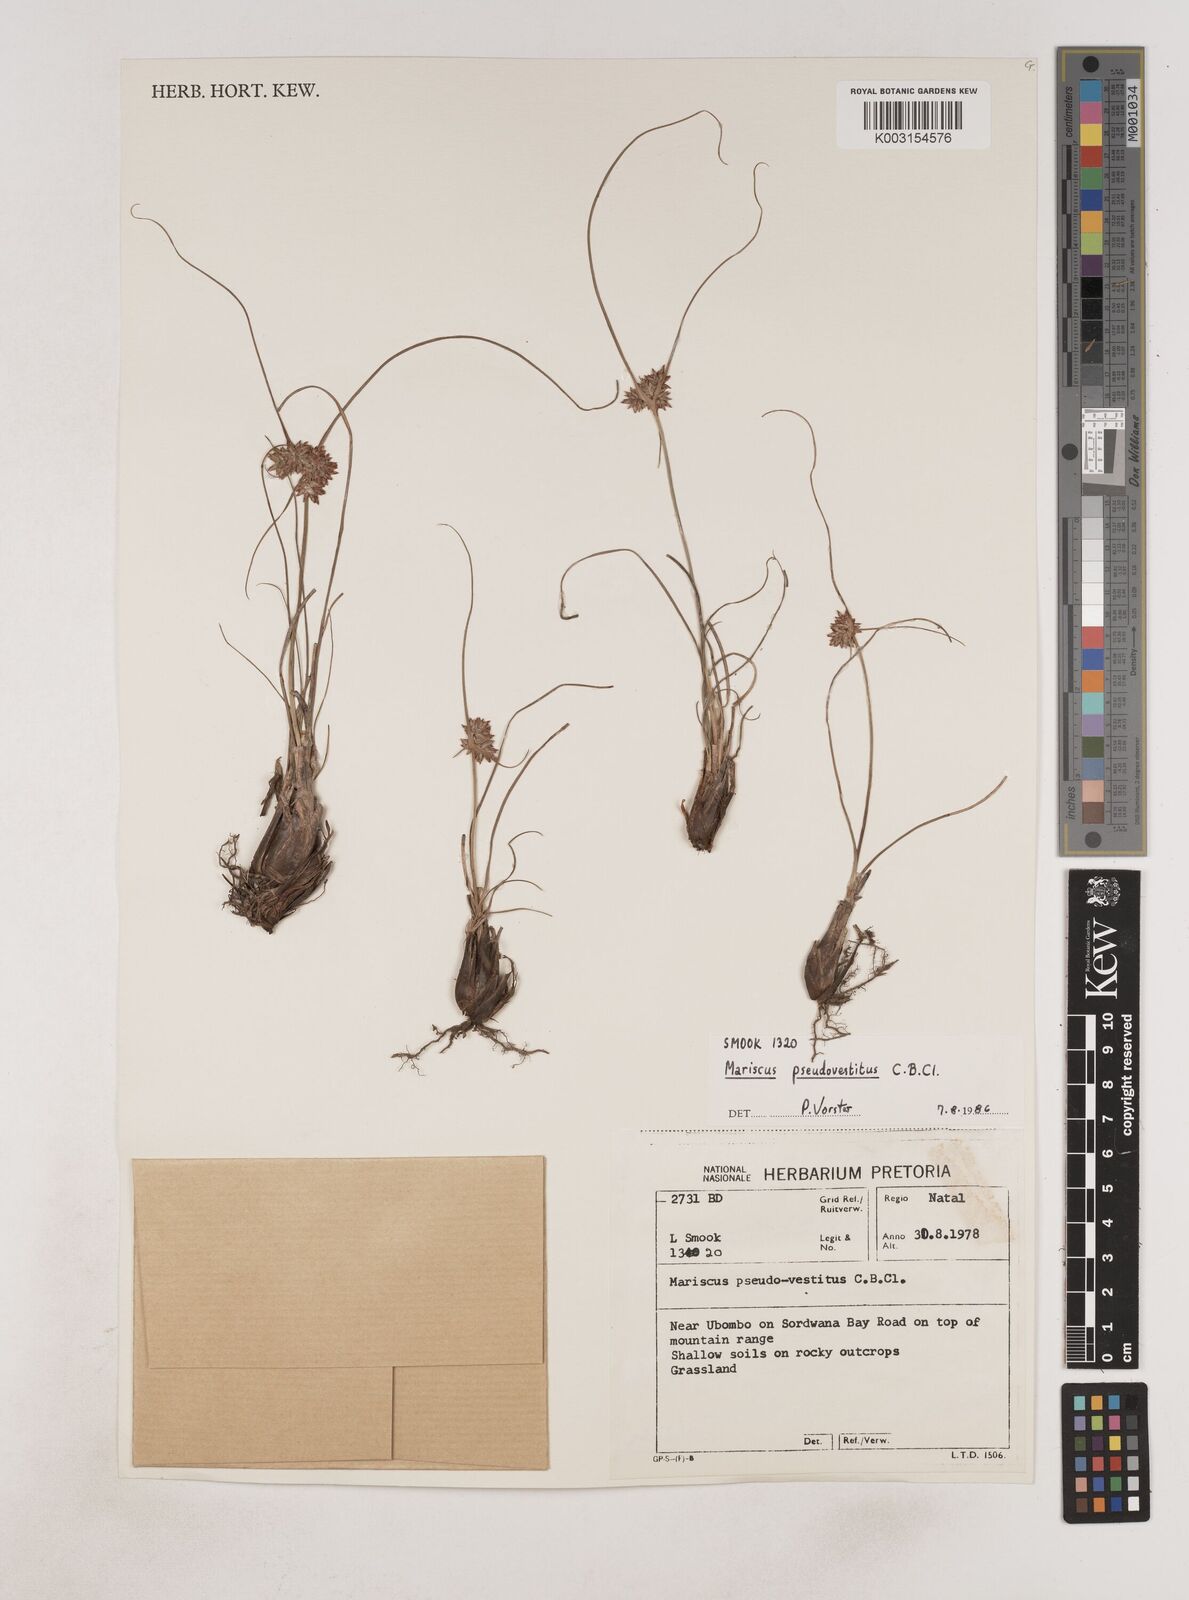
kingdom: Plantae
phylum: Tracheophyta
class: Liliopsida
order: Poales
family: Cyperaceae
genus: Cyperus
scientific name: Cyperus pseudovestitus
